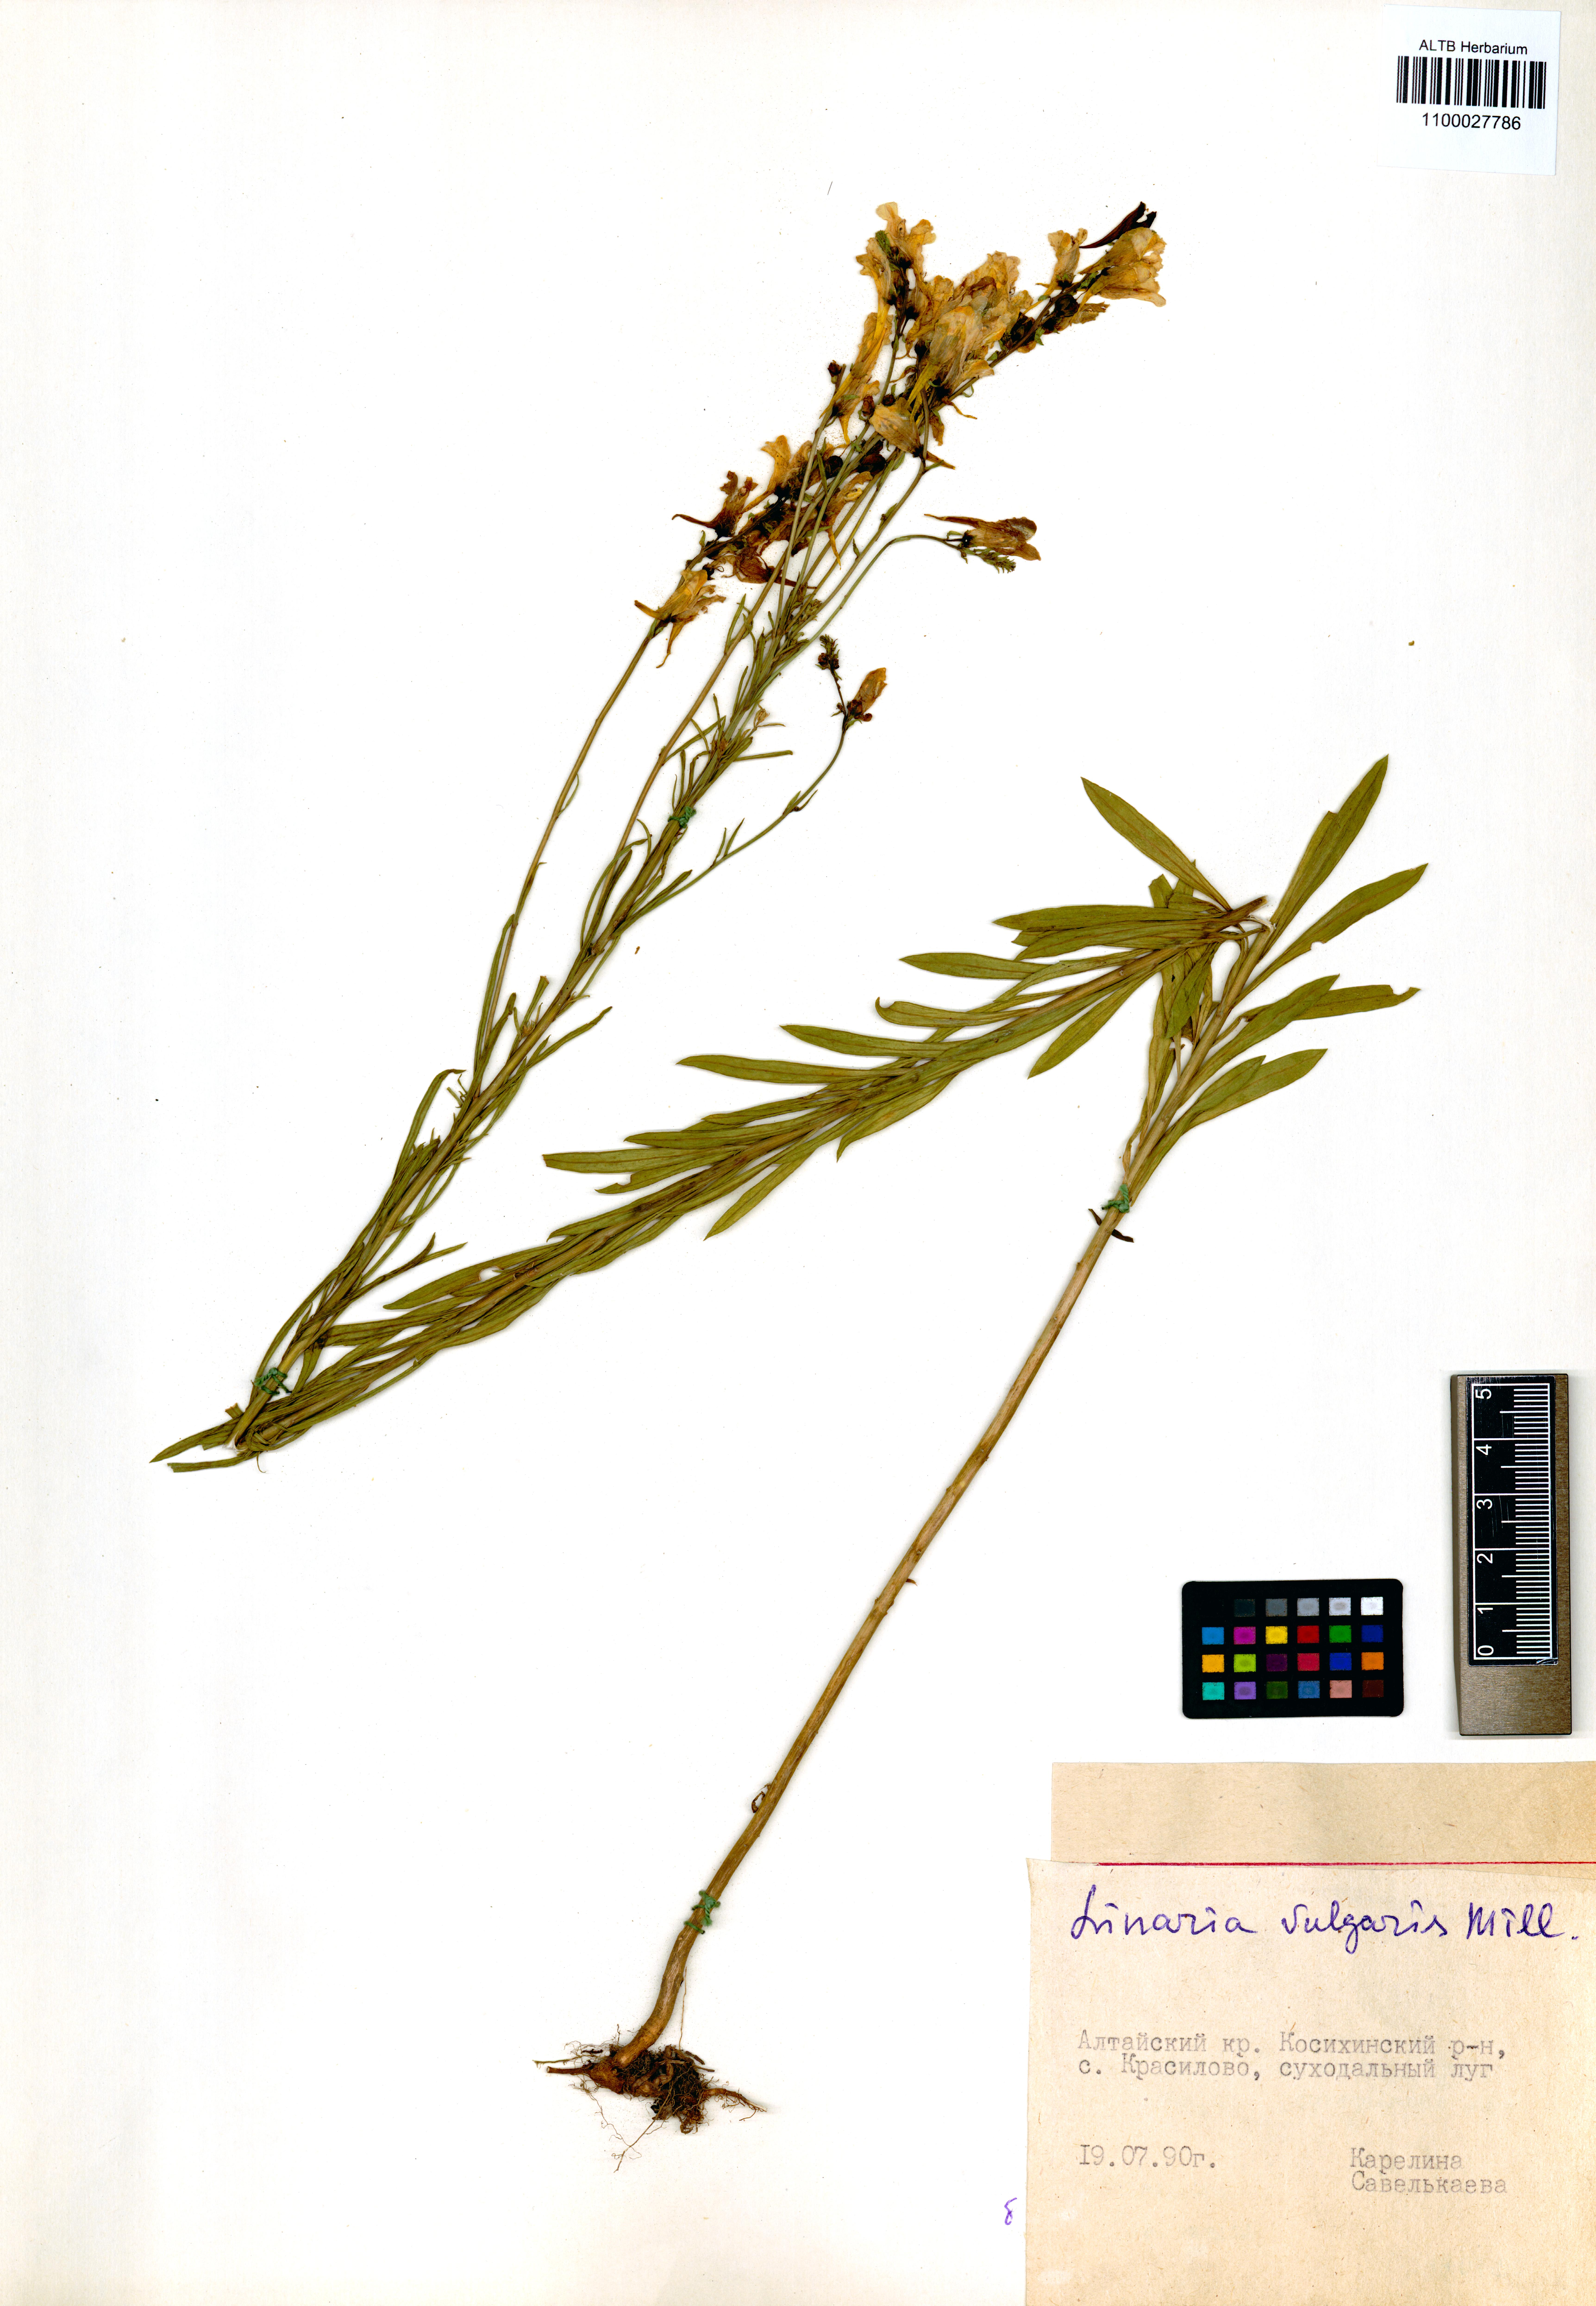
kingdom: Plantae
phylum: Tracheophyta
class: Magnoliopsida
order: Lamiales
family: Plantaginaceae
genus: Linaria
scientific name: Linaria vulgaris
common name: Butter and eggs
